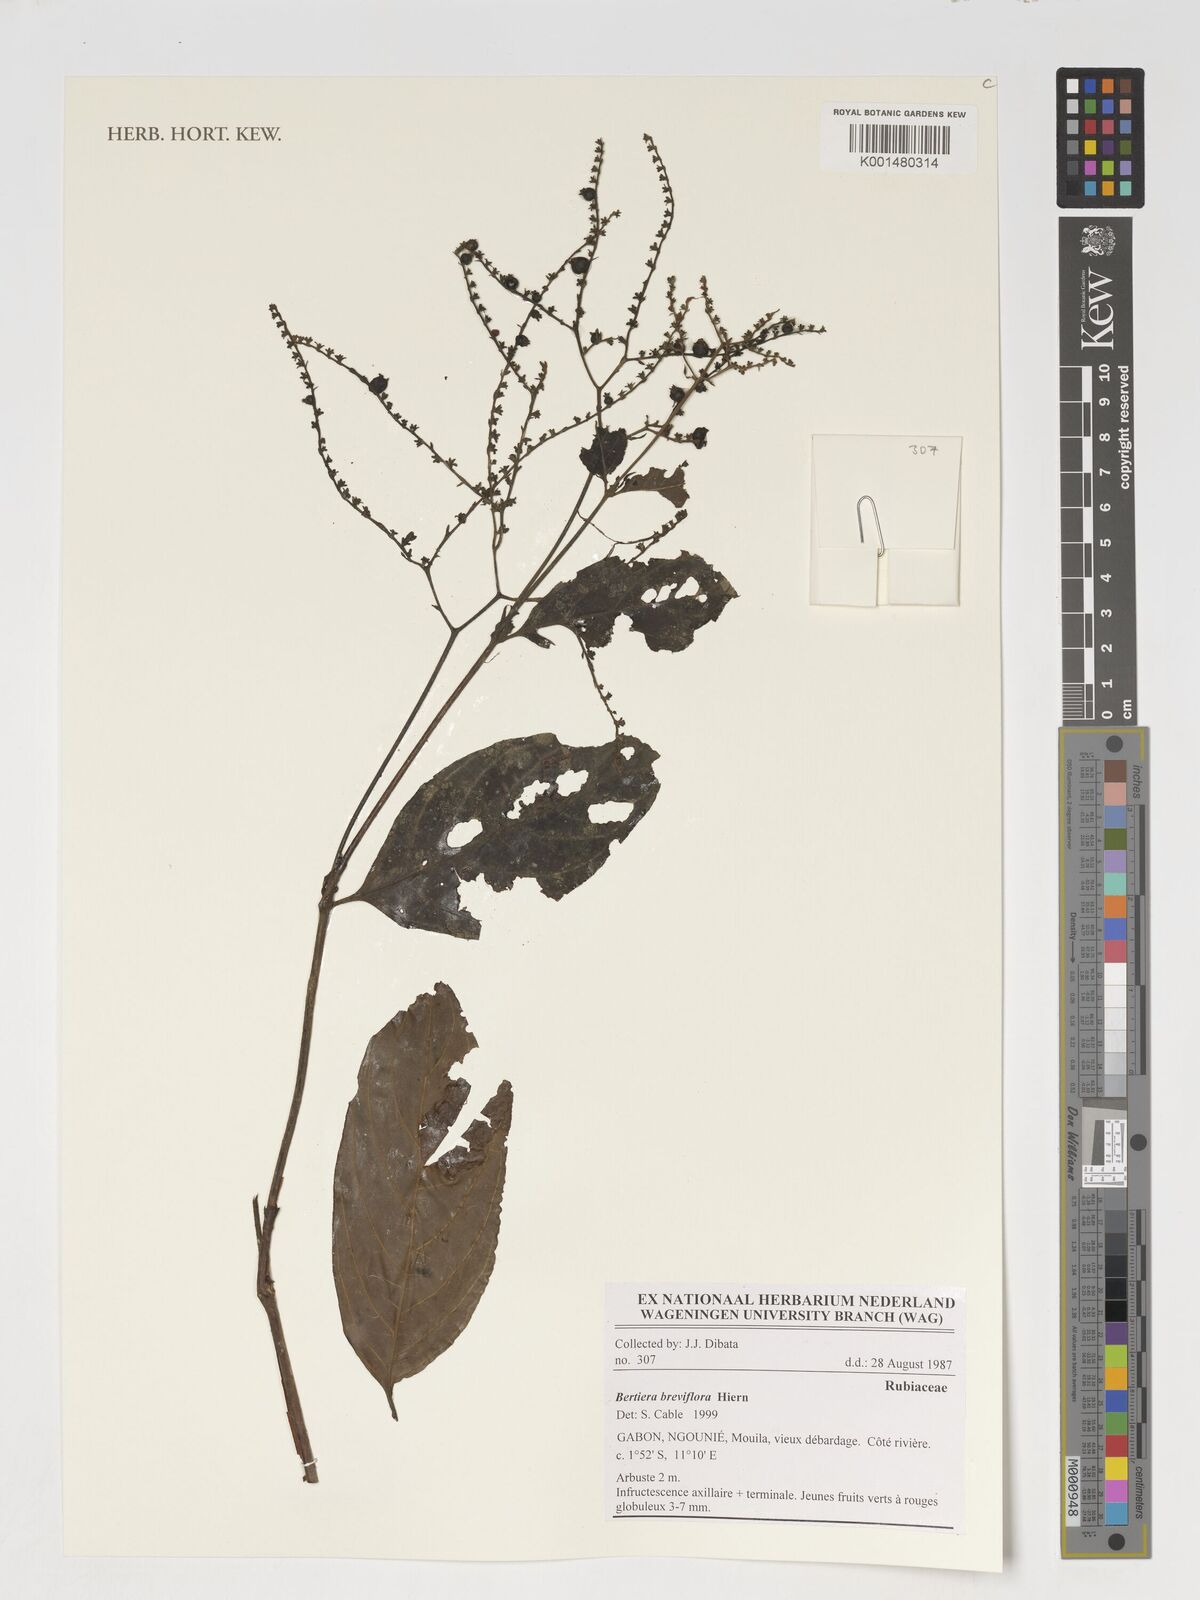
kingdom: Plantae
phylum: Tracheophyta
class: Magnoliopsida
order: Gentianales
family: Rubiaceae
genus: Bertiera
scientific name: Bertiera breviflora
